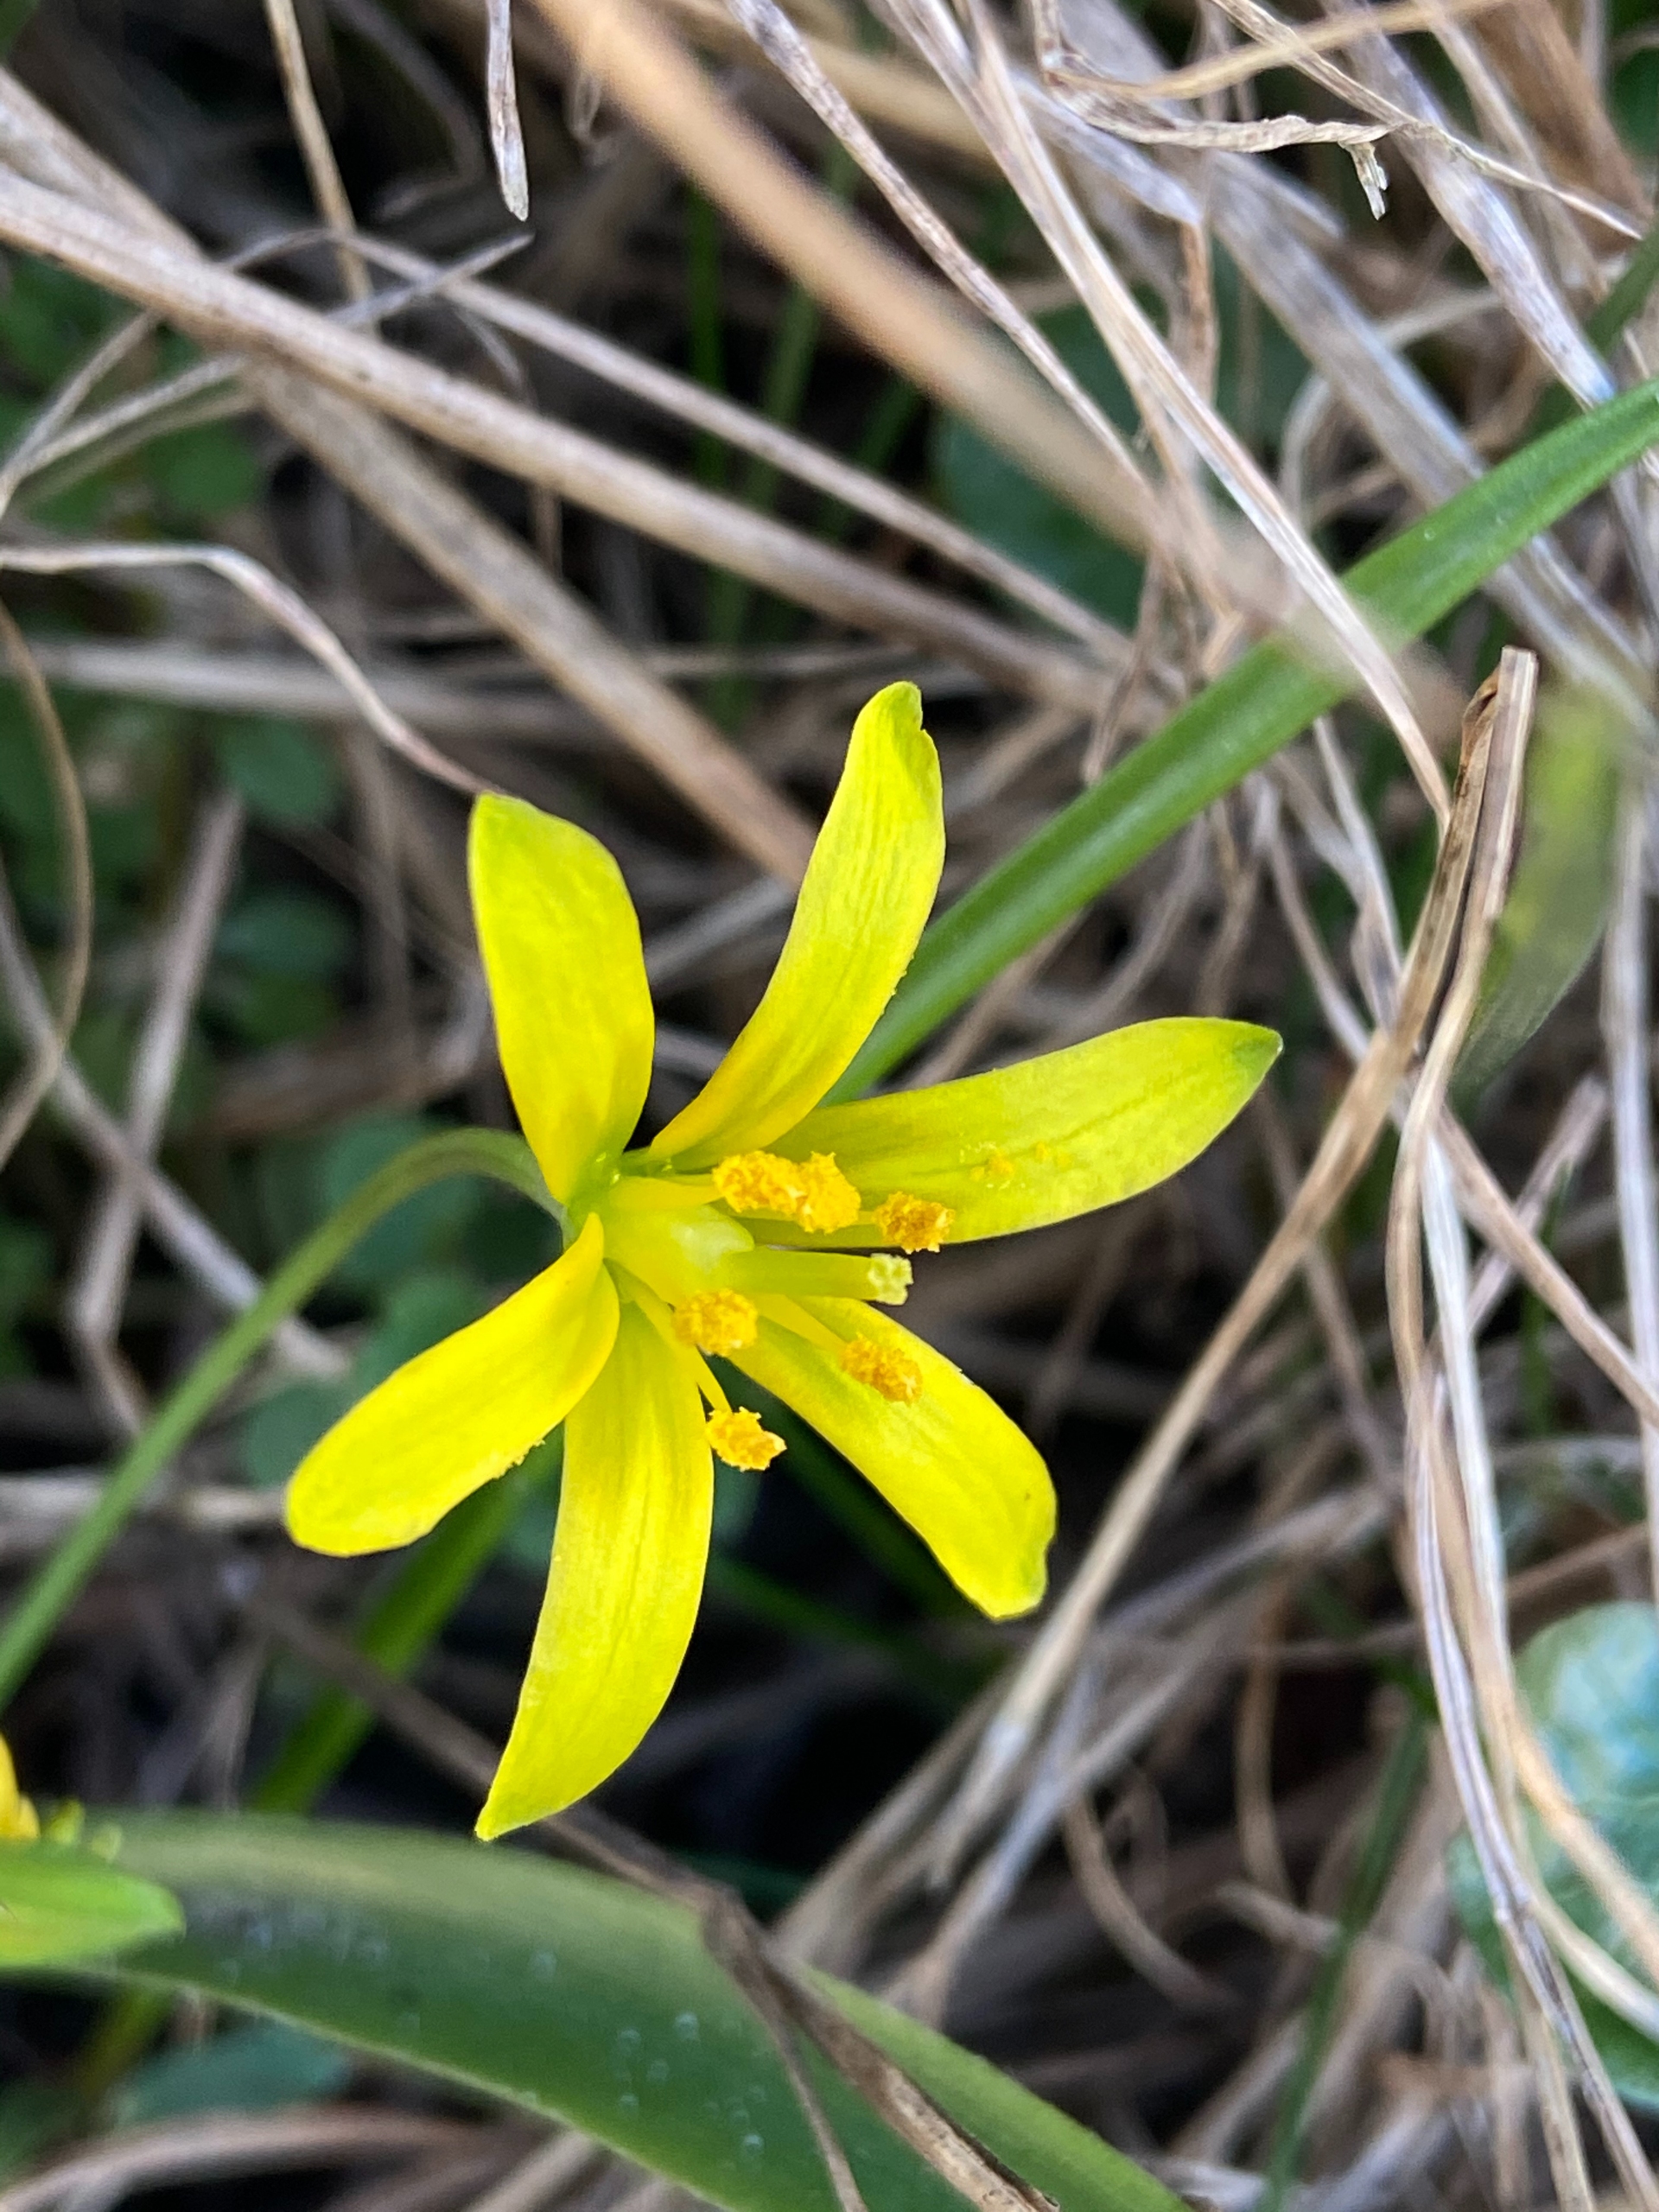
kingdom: Plantae
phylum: Tracheophyta
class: Liliopsida
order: Liliales
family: Liliaceae
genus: Gagea
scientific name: Gagea lutea
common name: Almindelig guldstjerne
